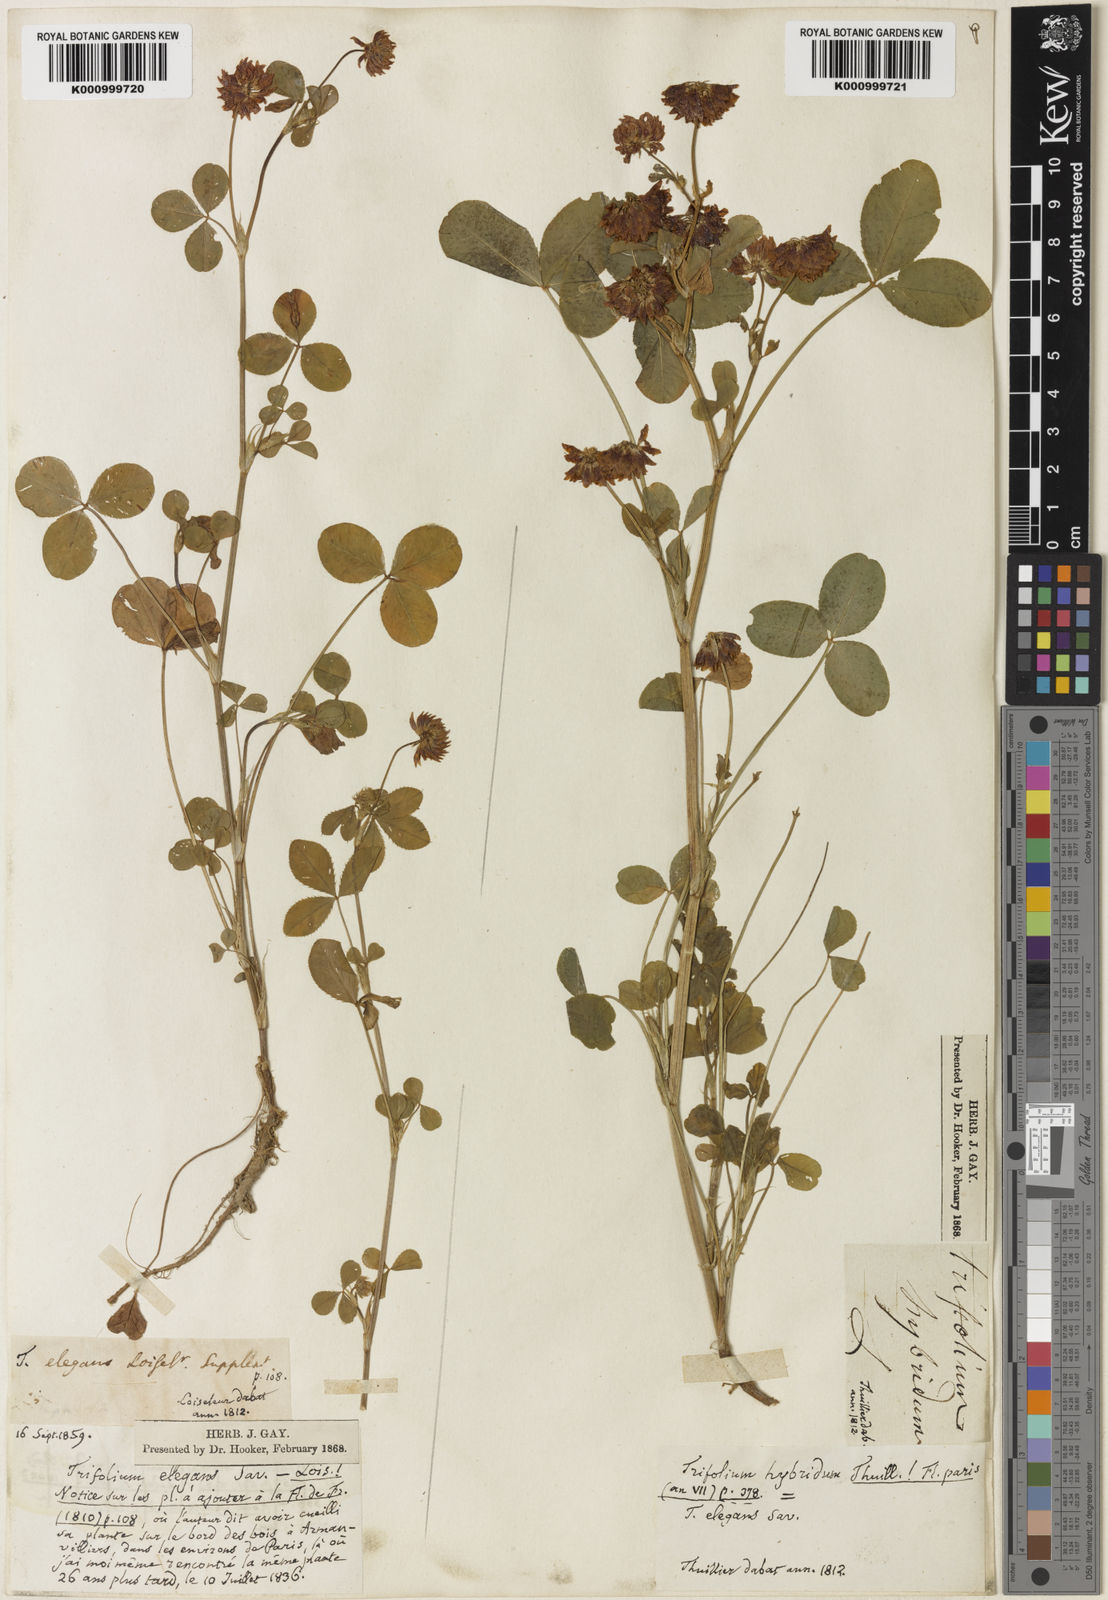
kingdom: Plantae
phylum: Tracheophyta
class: Magnoliopsida
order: Fabales
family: Fabaceae
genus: Trifolium
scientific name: Trifolium hybridum
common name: Alsike clover
